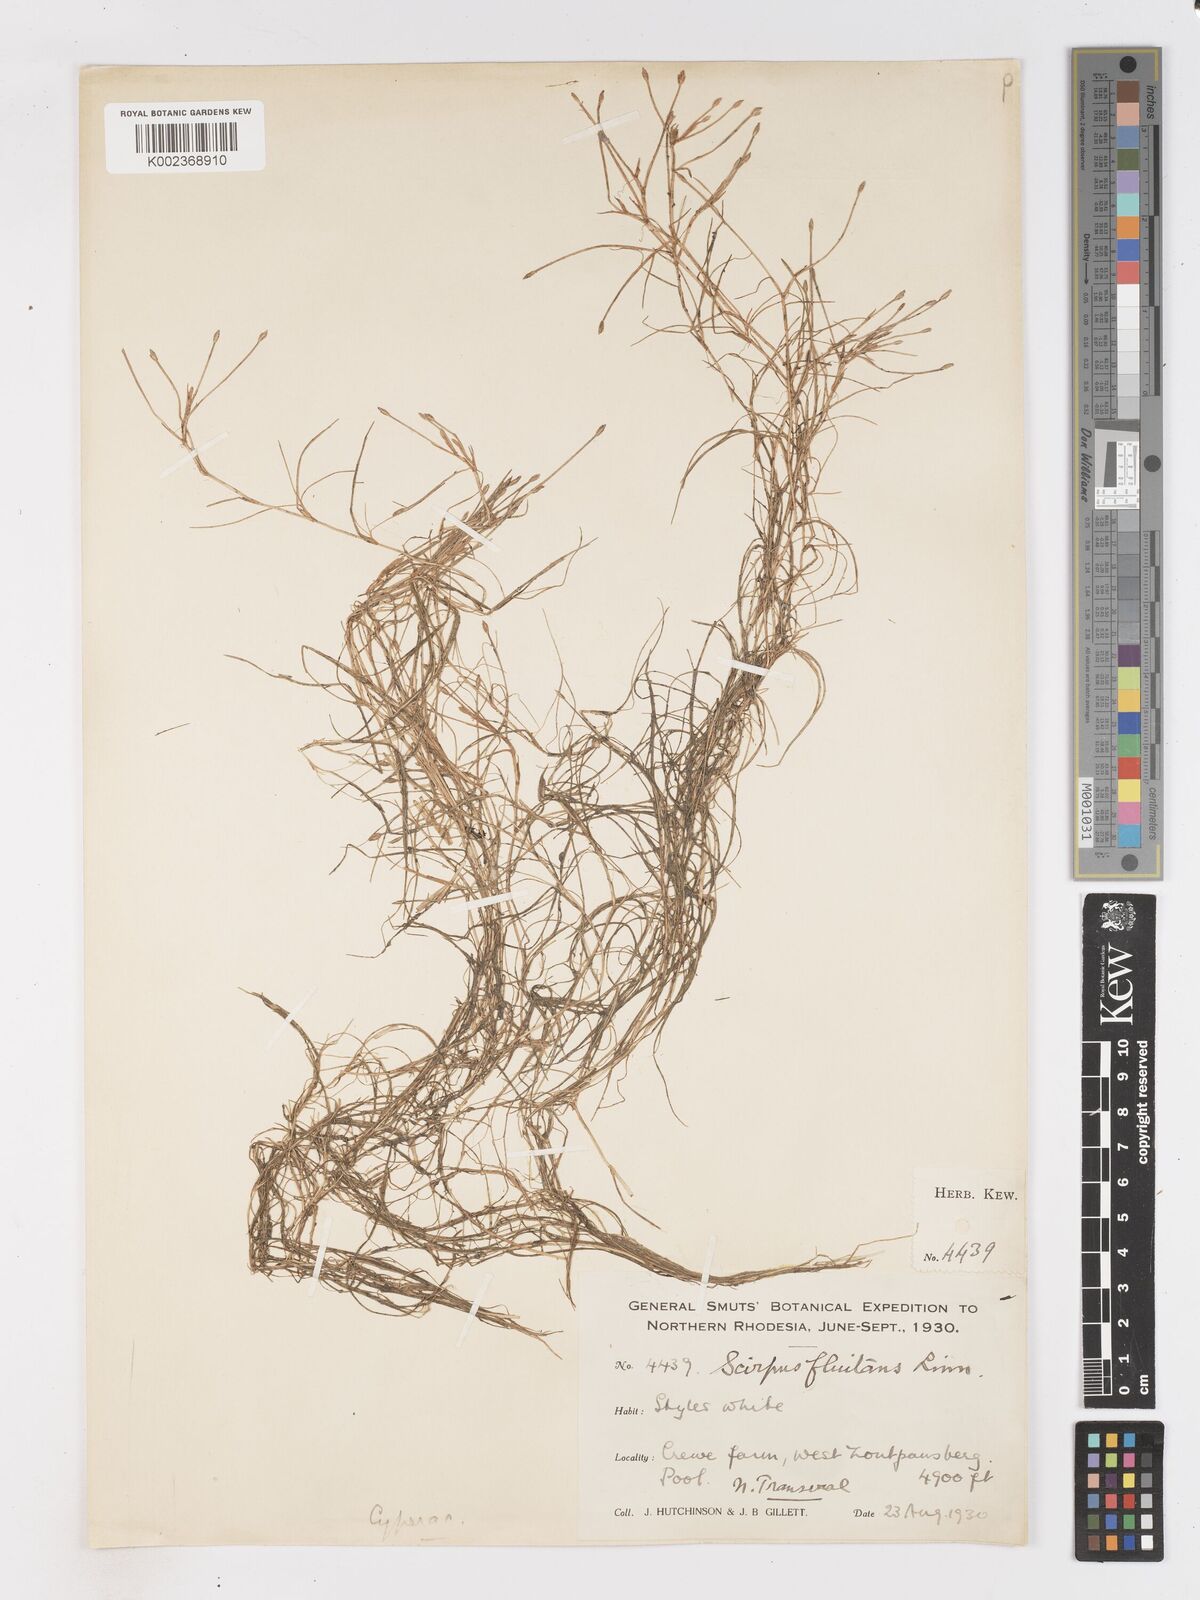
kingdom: Plantae
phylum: Tracheophyta
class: Liliopsida
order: Poales
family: Cyperaceae
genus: Isolepis
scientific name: Isolepis
